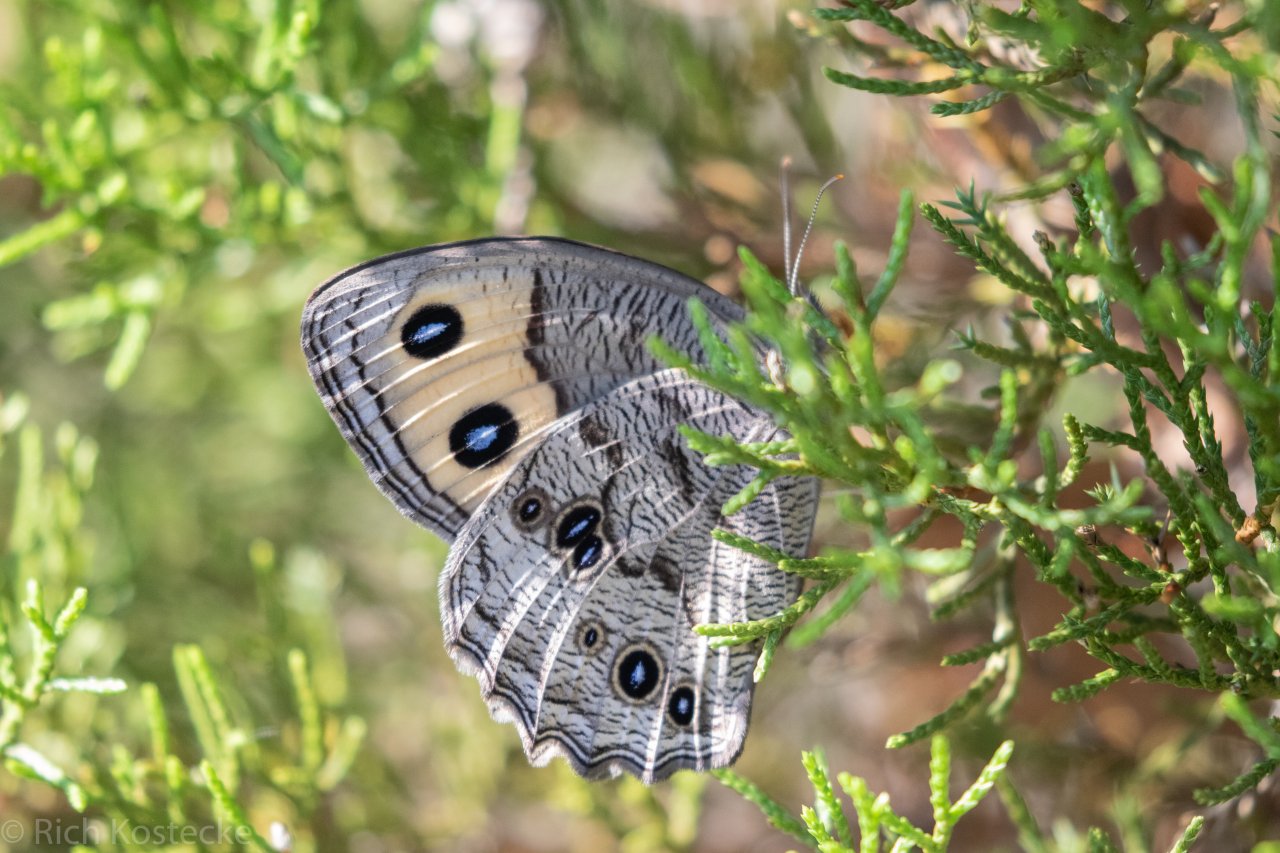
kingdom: Animalia
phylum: Arthropoda
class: Insecta
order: Lepidoptera
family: Nymphalidae
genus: Cercyonis
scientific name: Cercyonis pegala
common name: Common Wood-Nymph
